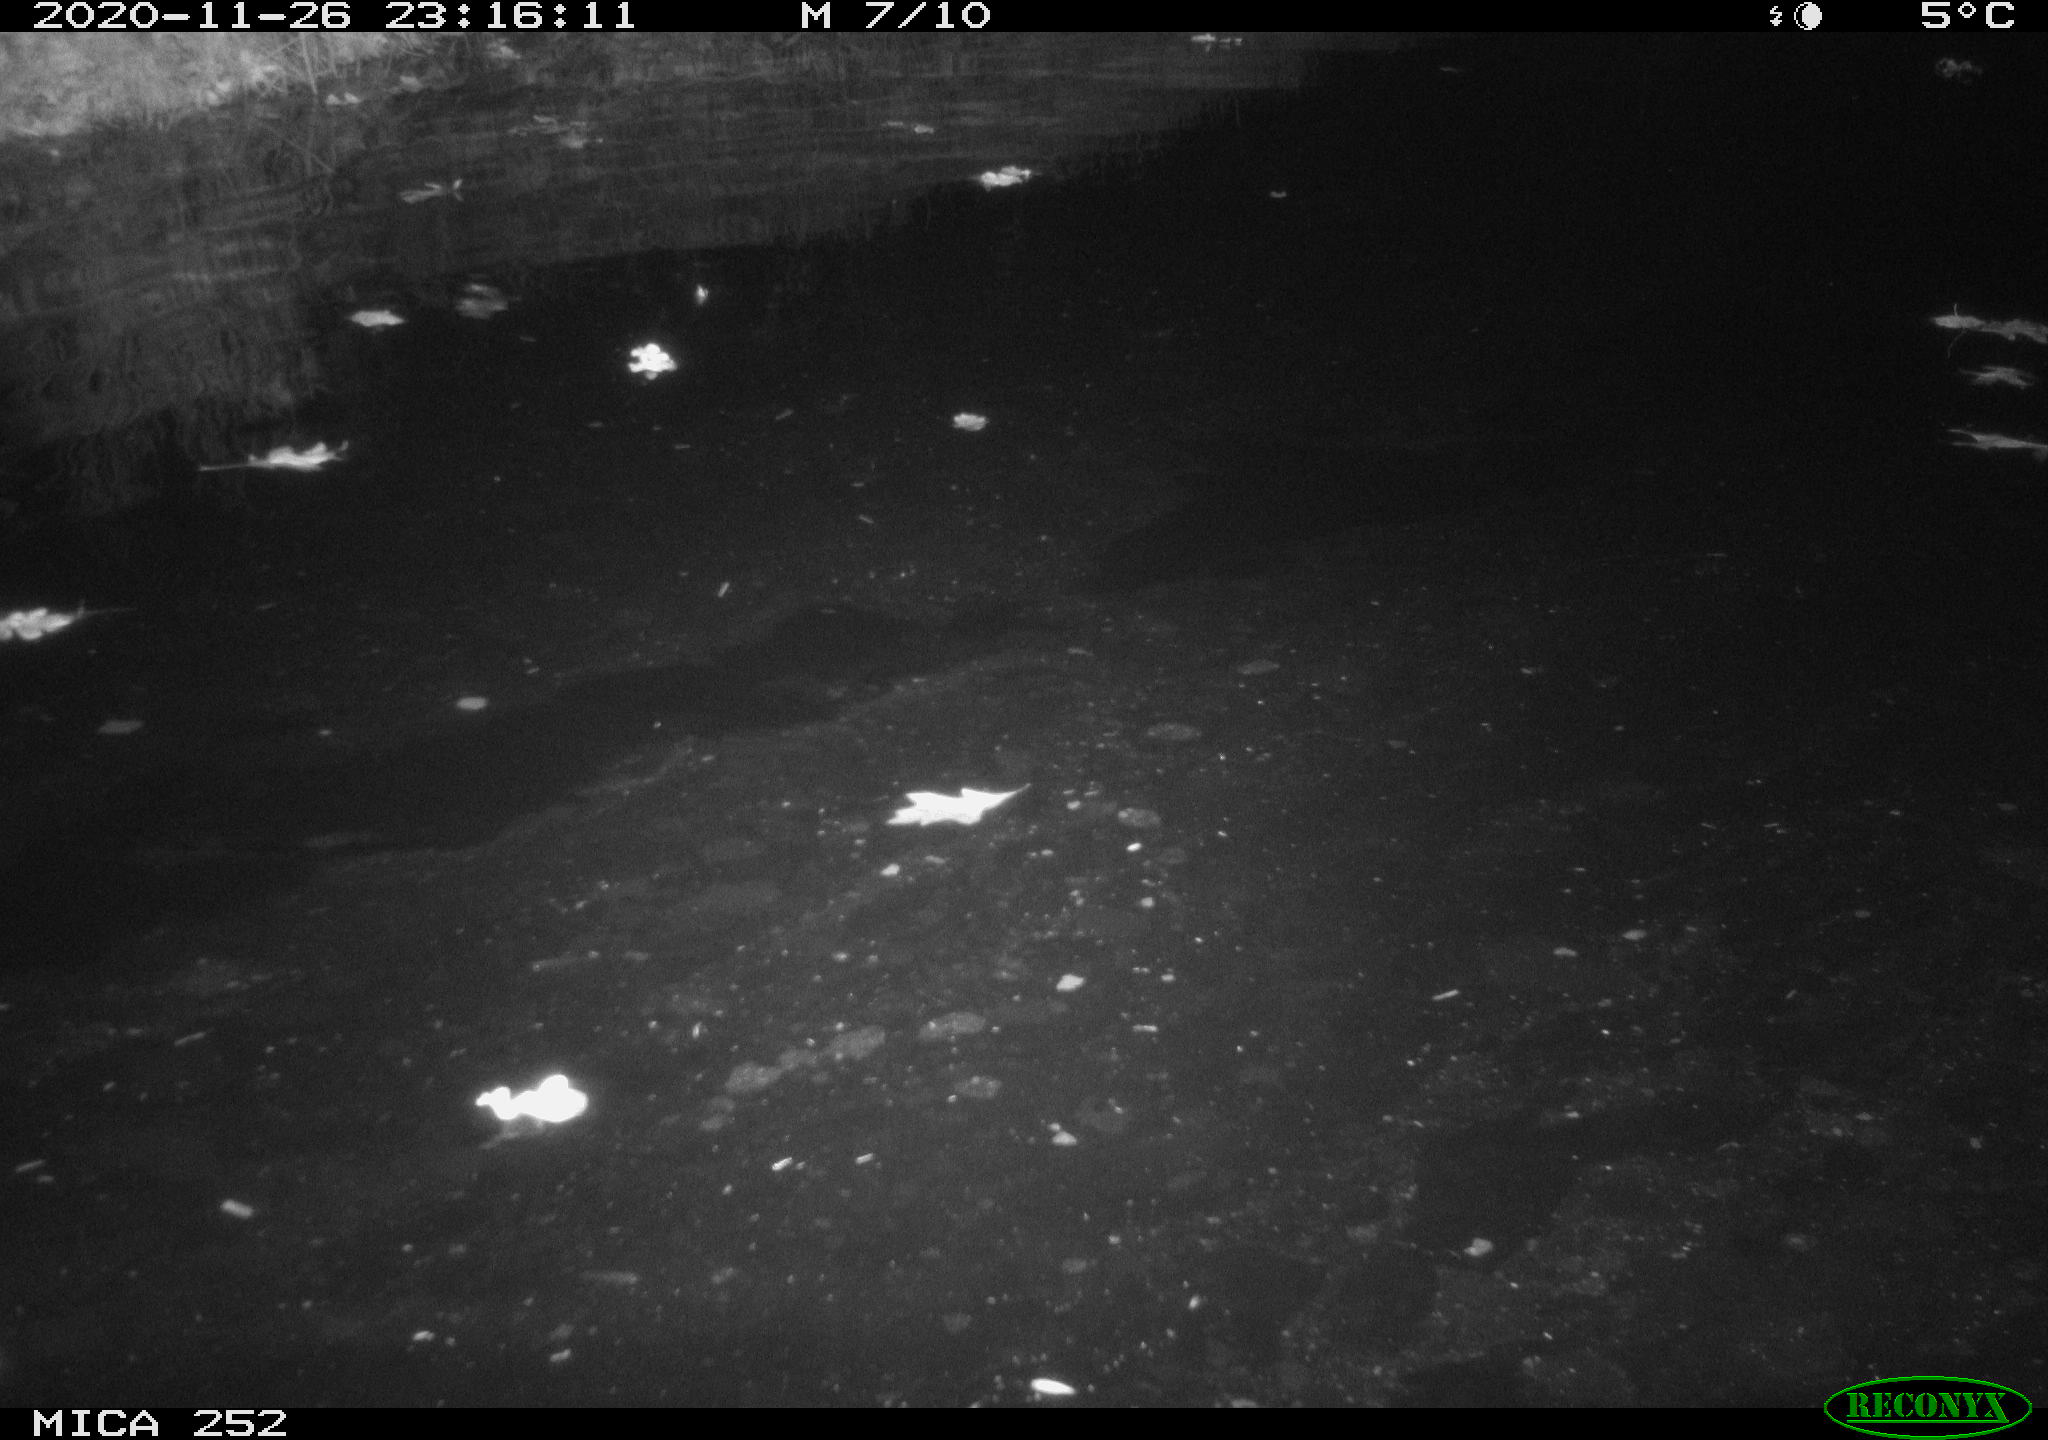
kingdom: Animalia
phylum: Chordata
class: Mammalia
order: Rodentia
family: Castoridae
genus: Castor
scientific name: Castor fiber
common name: Eurasian beaver
